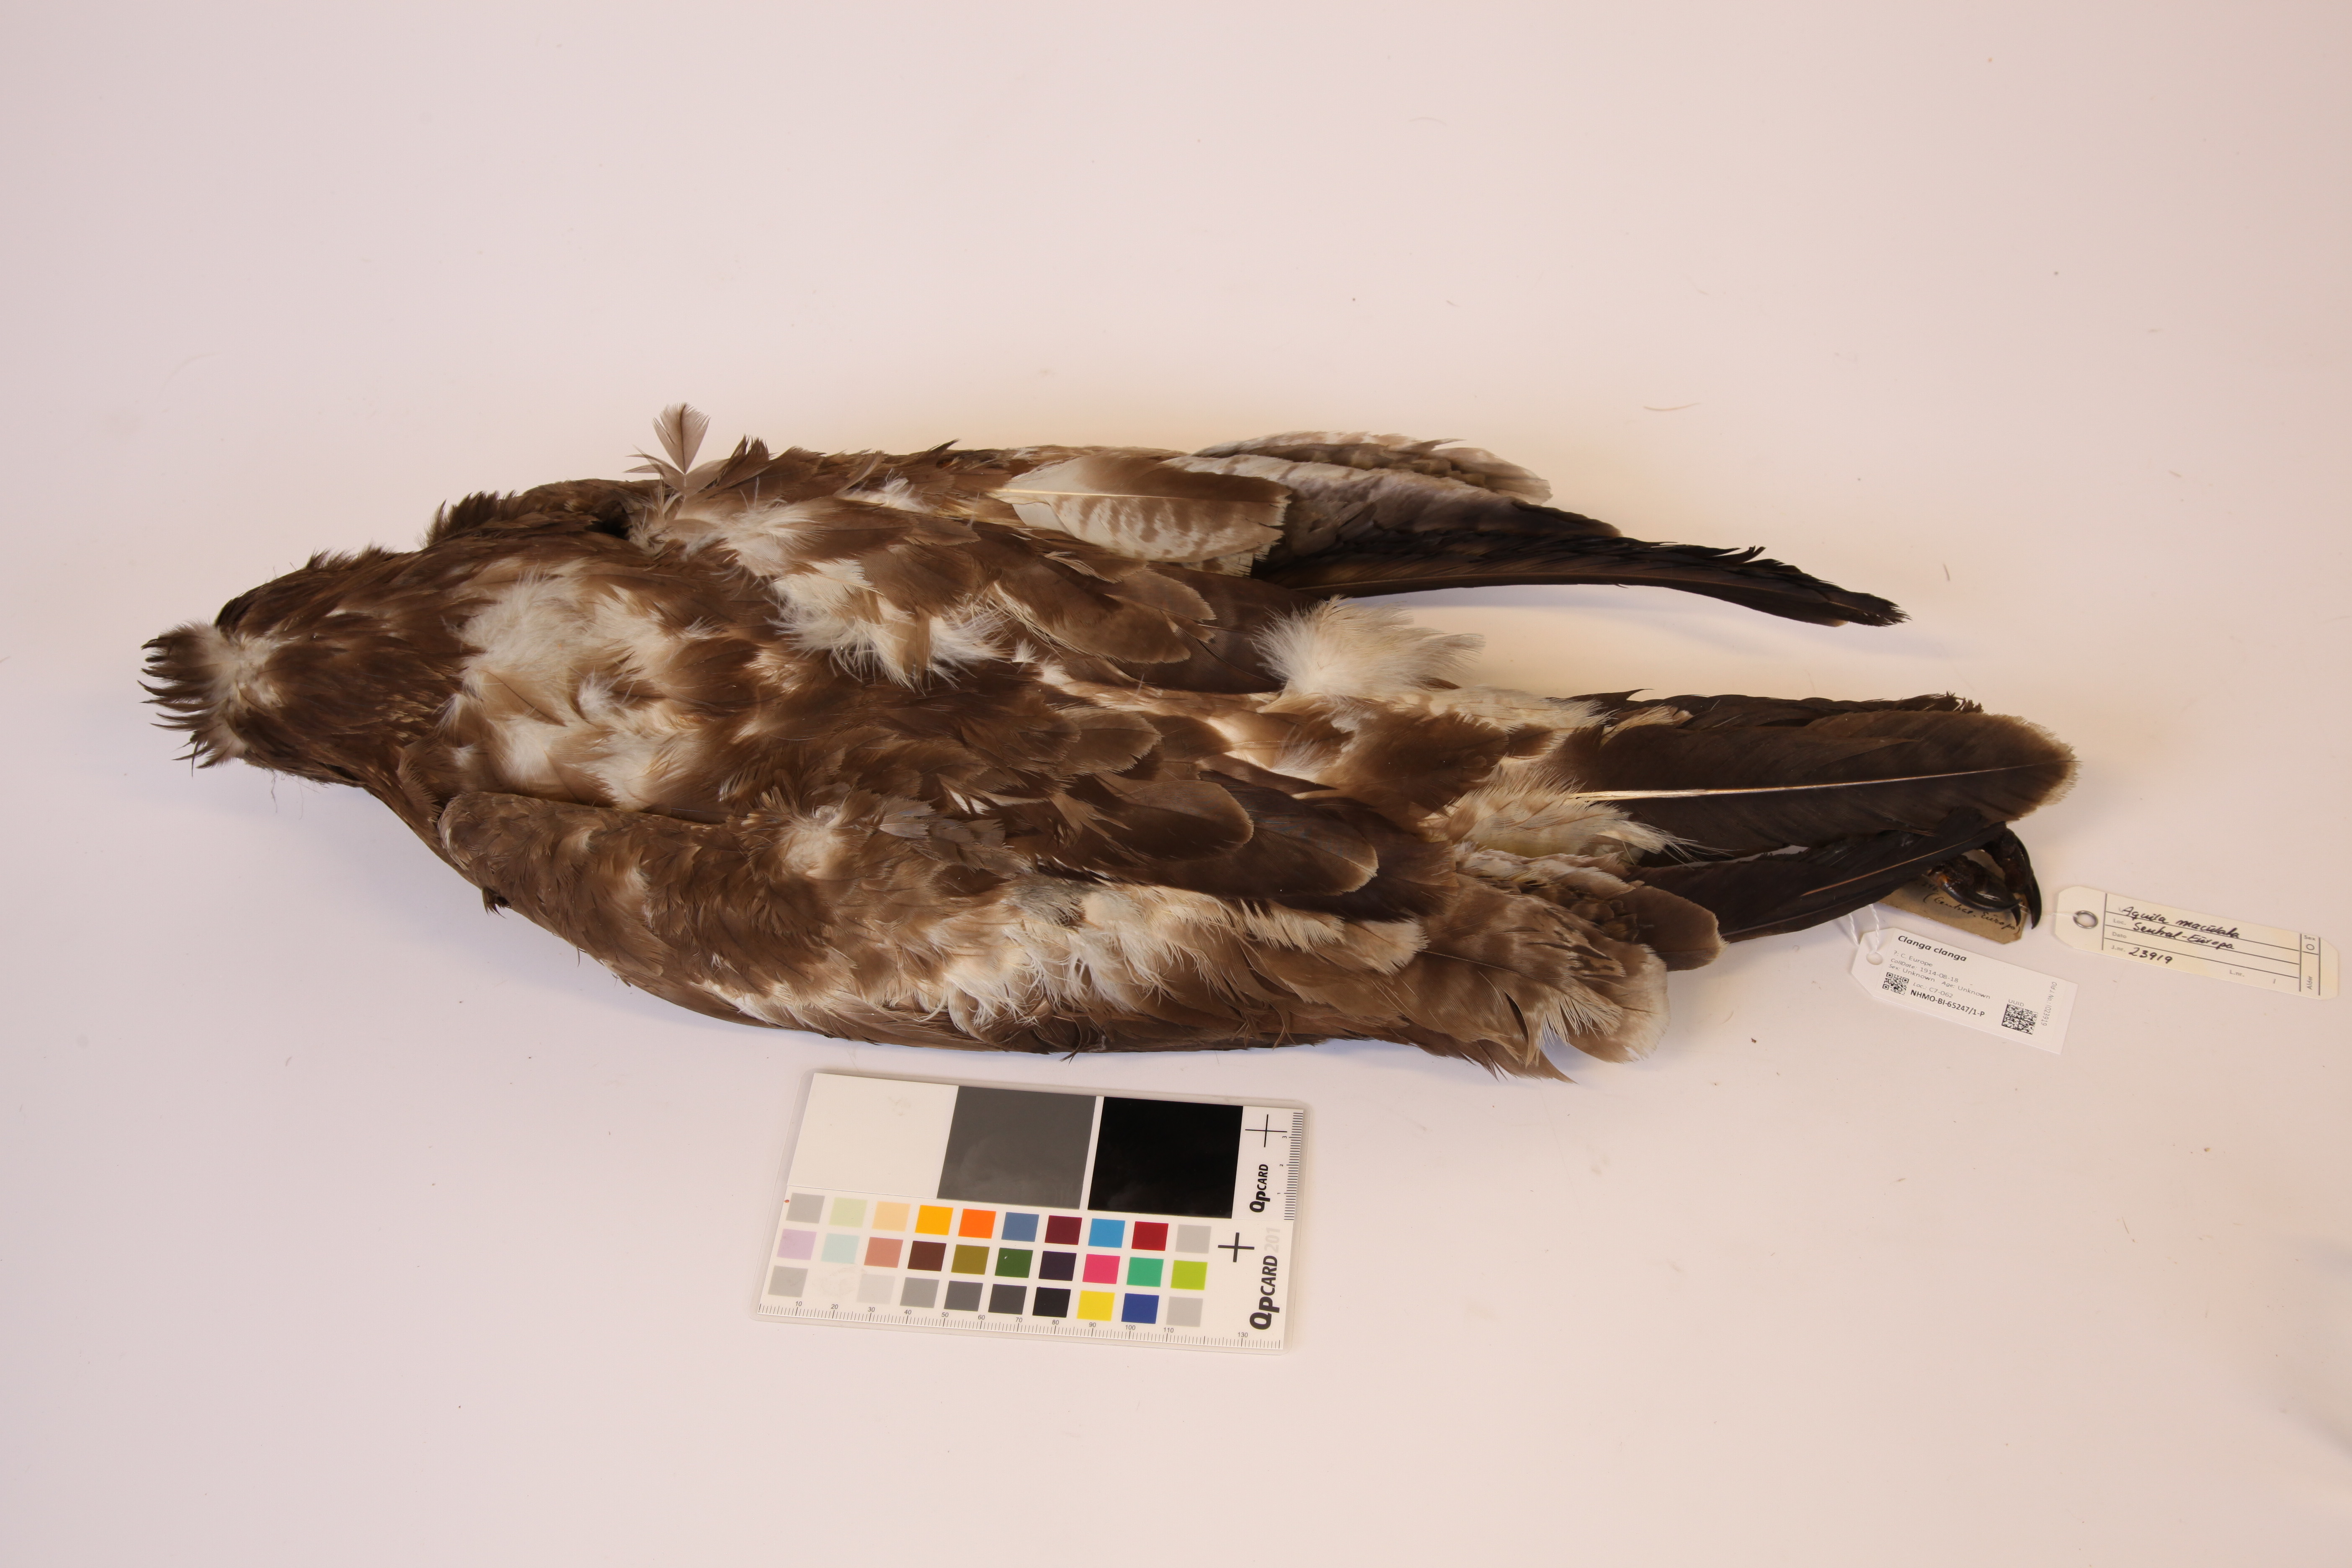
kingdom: Animalia
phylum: Chordata
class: Aves
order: Accipitriformes
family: Accipitridae
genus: Aquila
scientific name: Aquila clanga
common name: Greater spotted eagle
